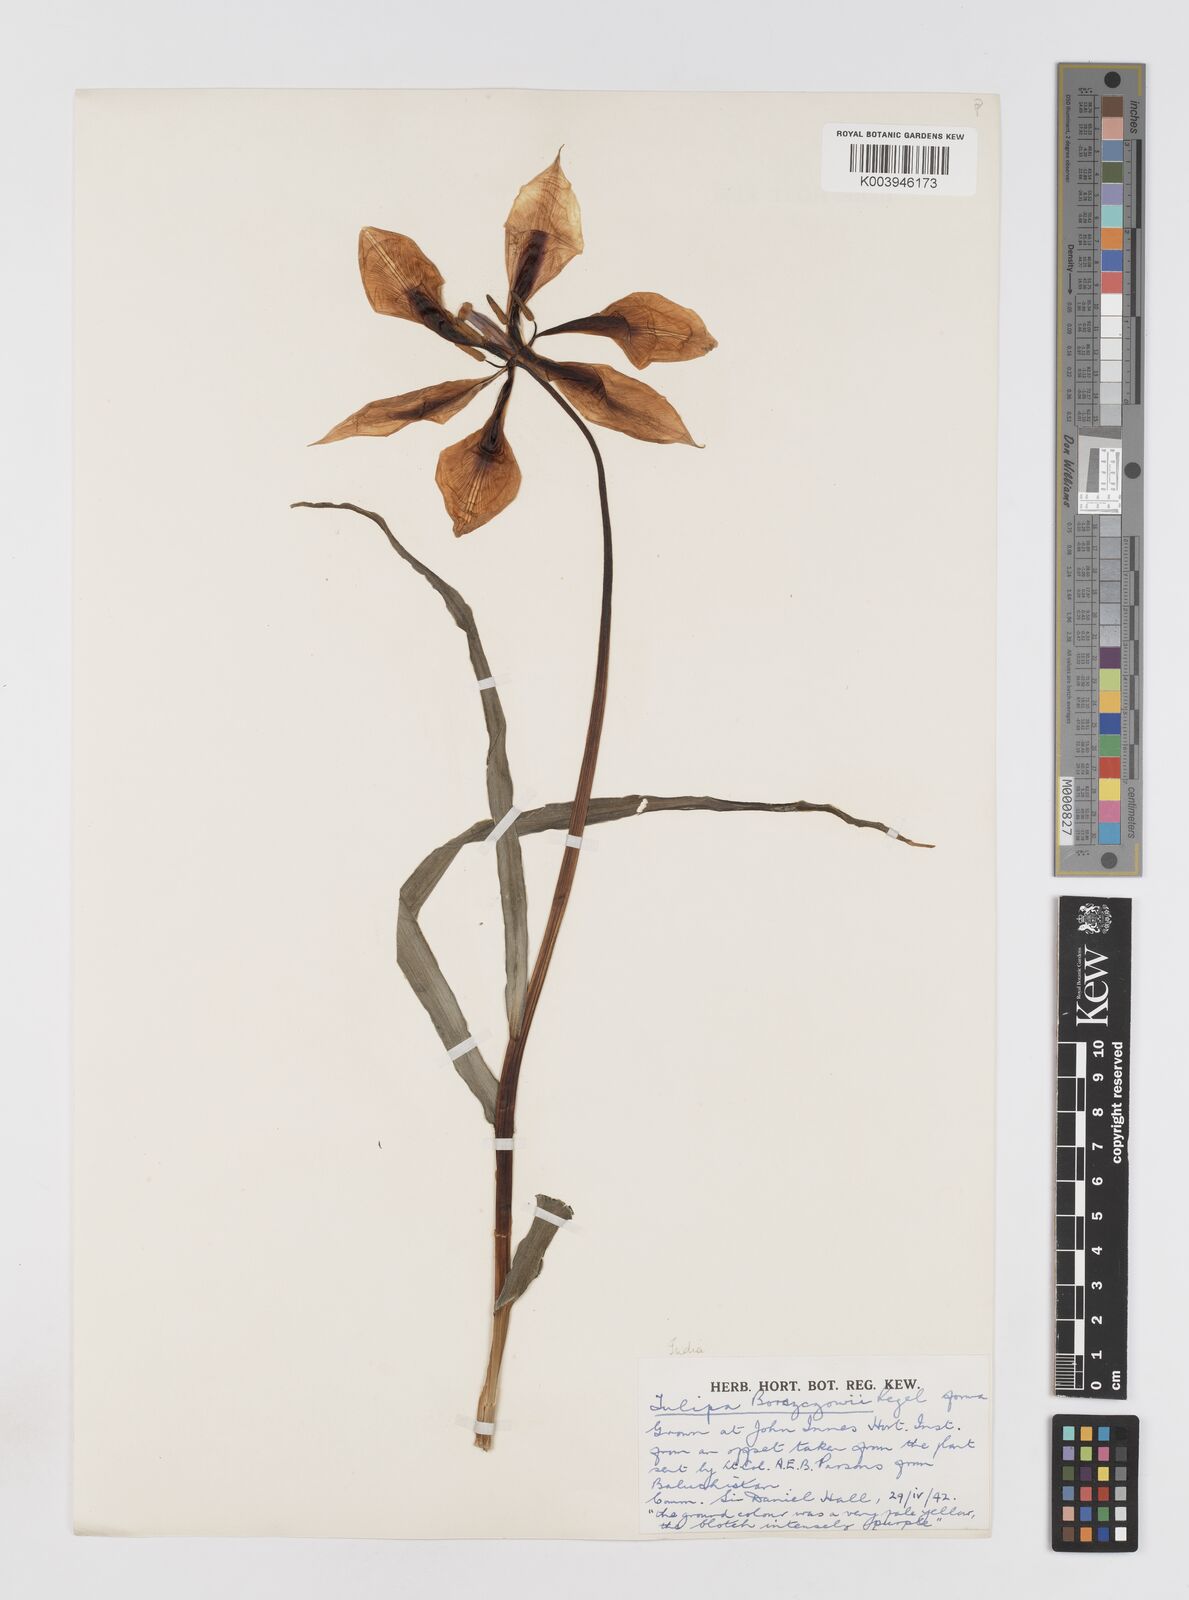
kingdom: Plantae
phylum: Tracheophyta
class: Liliopsida
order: Liliales
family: Liliaceae
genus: Tulipa
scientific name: Tulipa borszczowii
